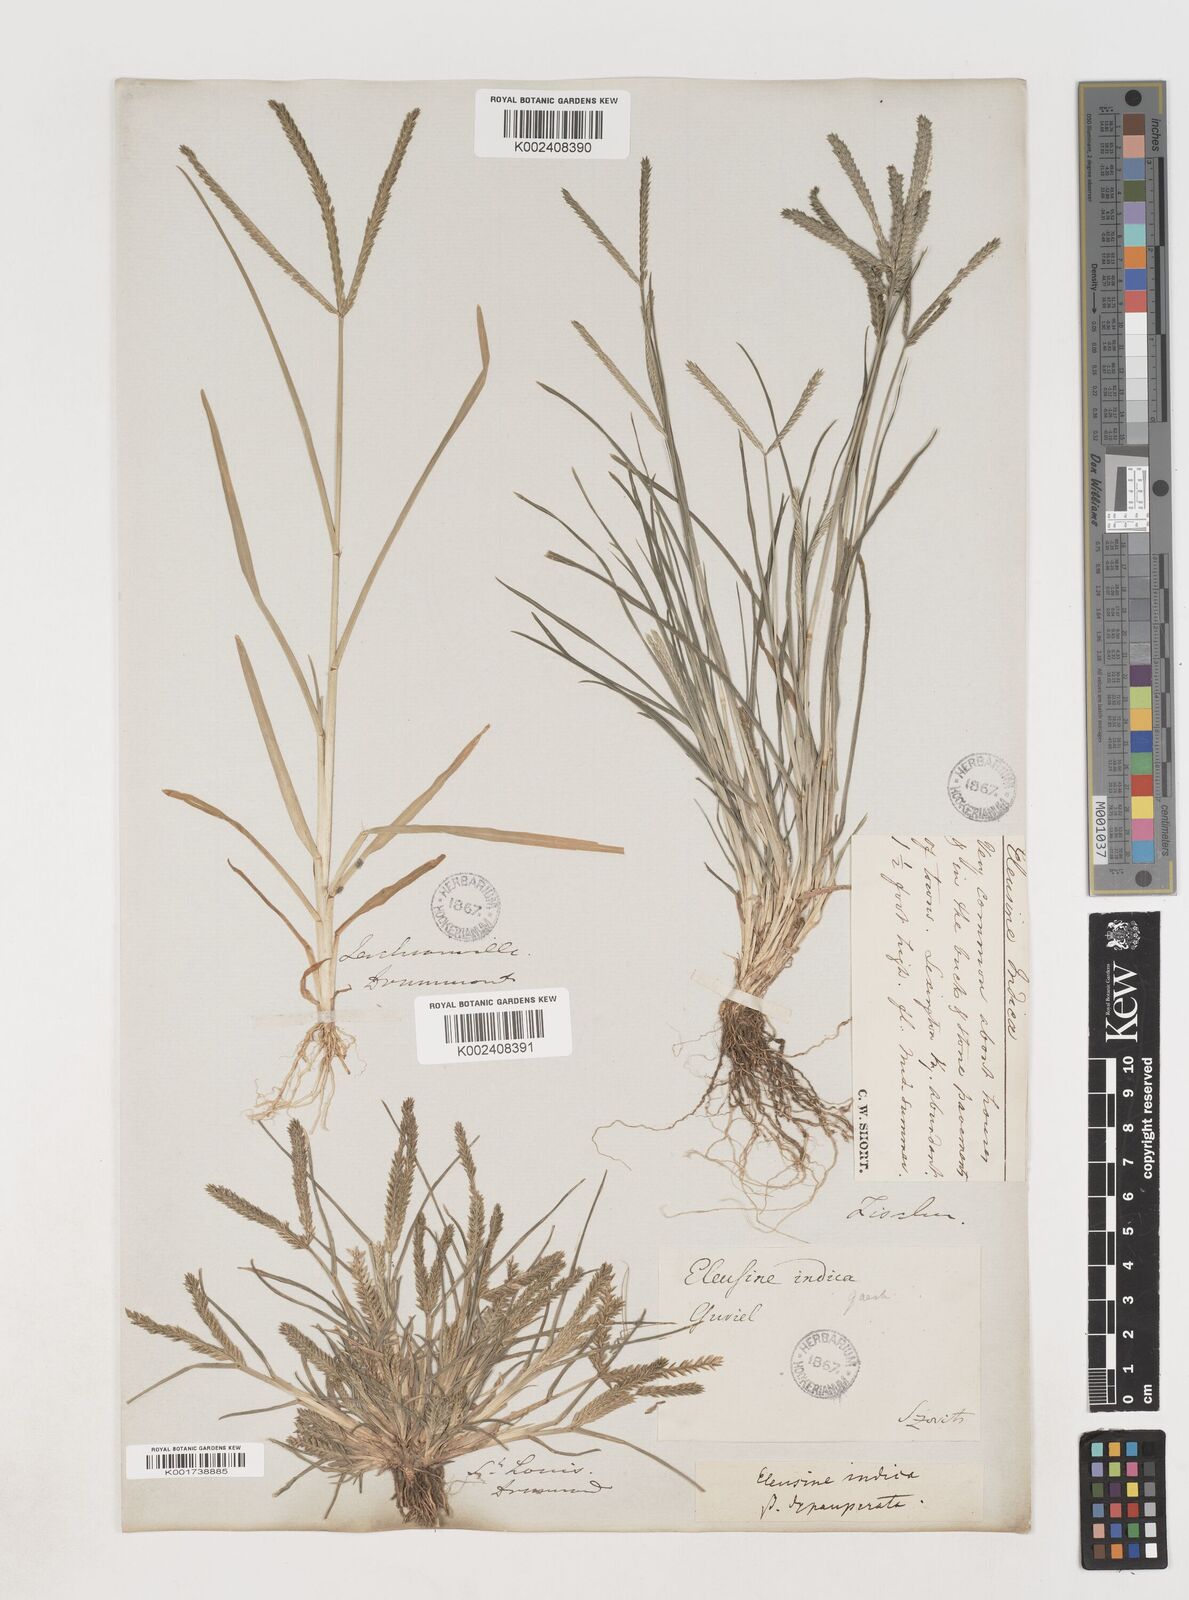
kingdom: Plantae
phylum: Tracheophyta
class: Liliopsida
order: Poales
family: Poaceae
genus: Eleusine
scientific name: Eleusine indica
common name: Yard-grass
